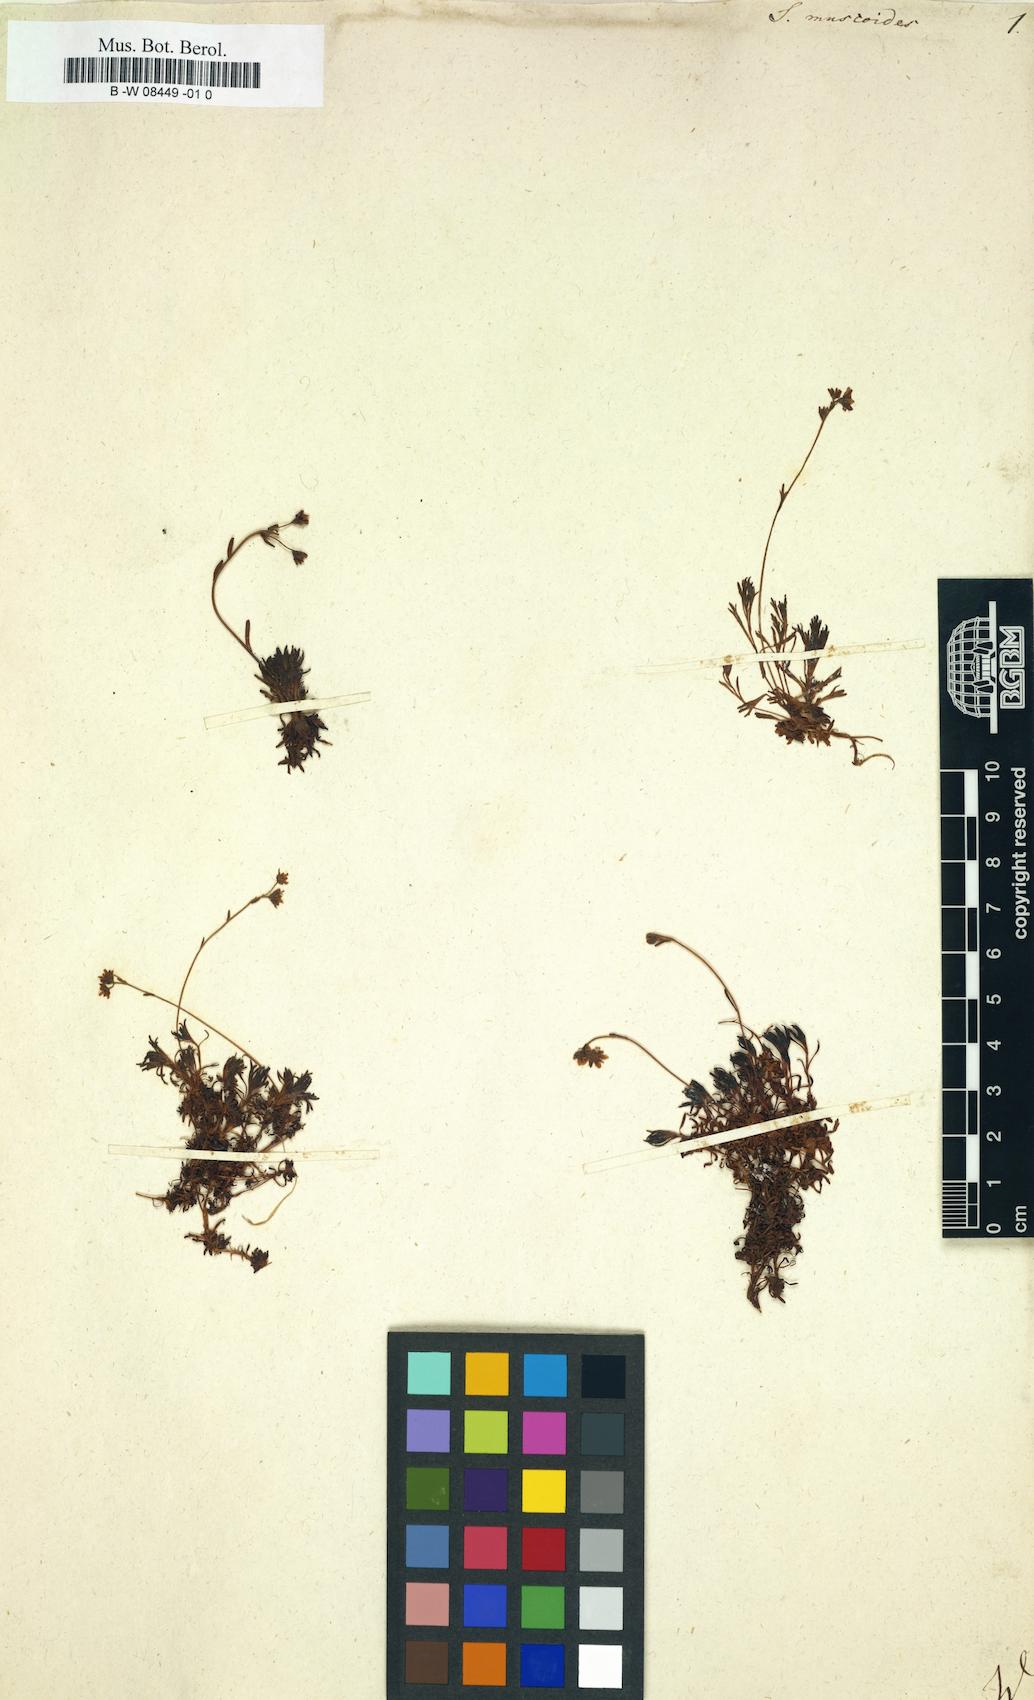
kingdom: Plantae
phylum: Tracheophyta
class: Magnoliopsida
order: Saxifragales
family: Saxifragaceae
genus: Saxifraga
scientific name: Saxifraga muscoides
